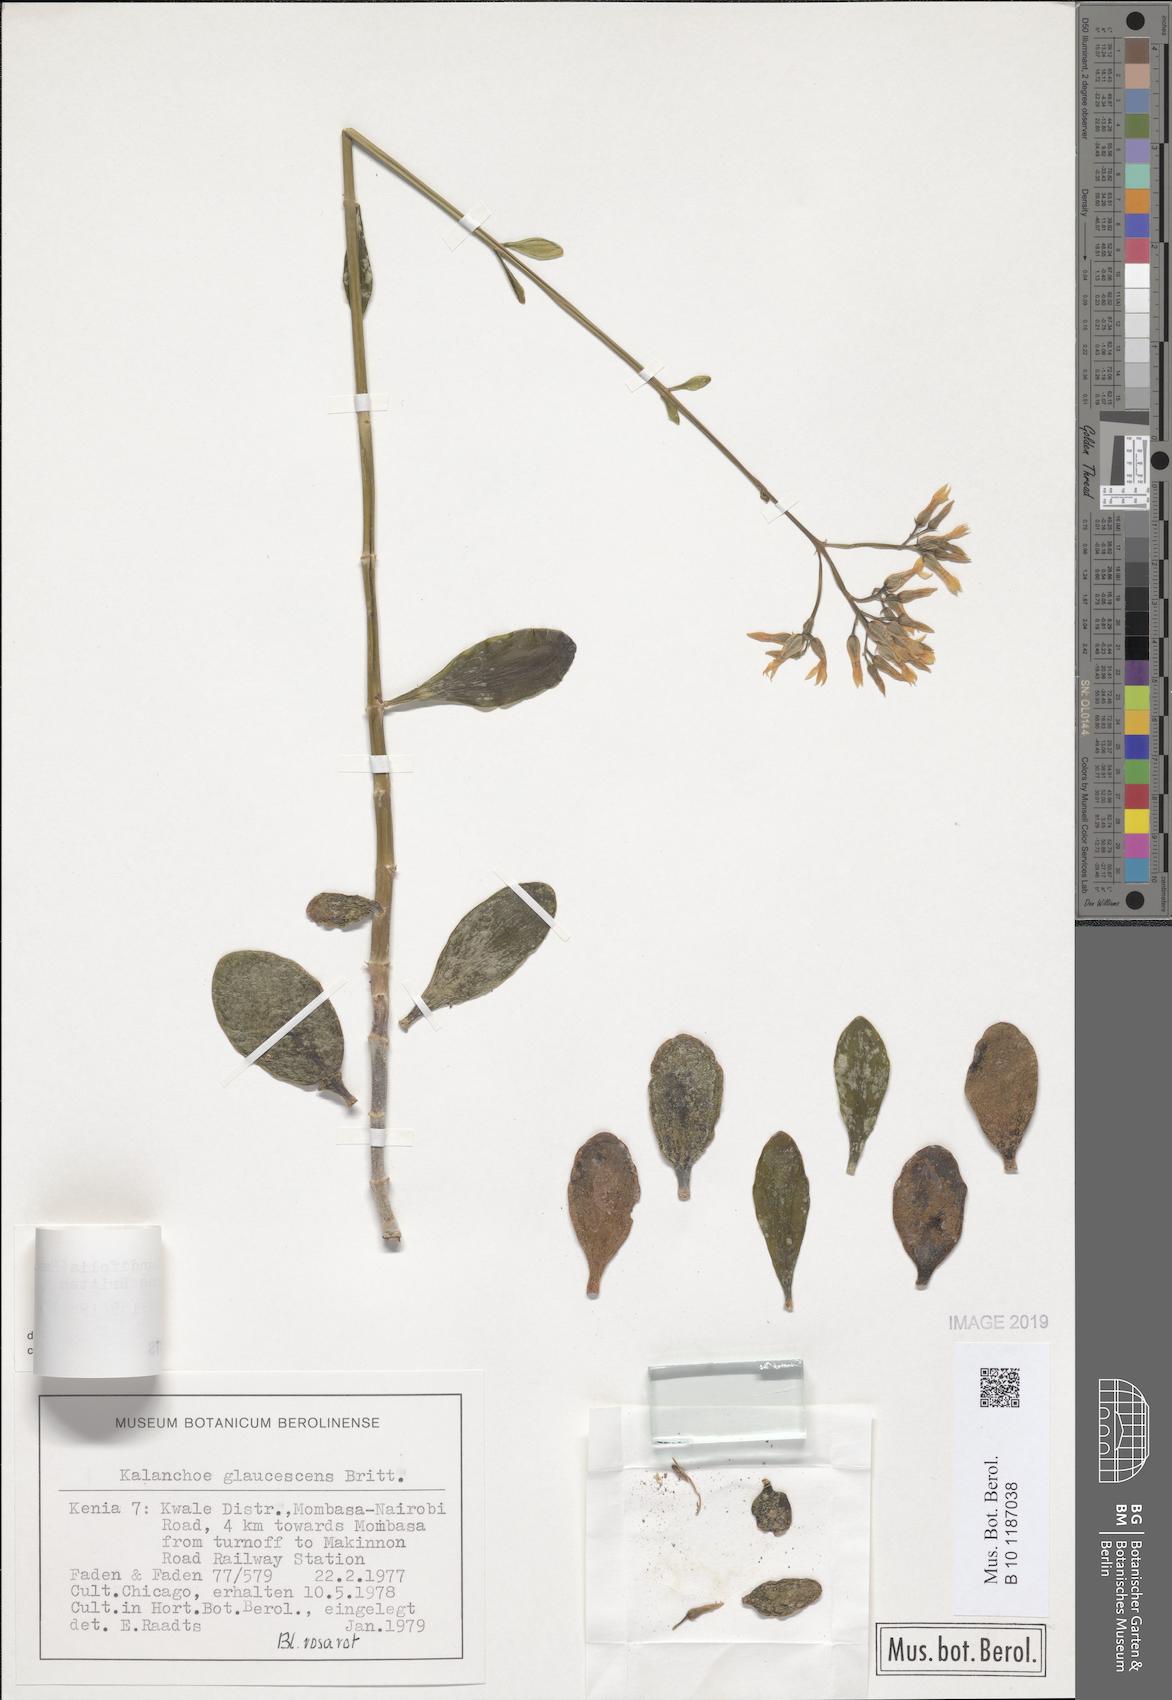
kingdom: Plantae
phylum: Tracheophyta
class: Magnoliopsida
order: Saxifragales
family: Crassulaceae
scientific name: Crassulaceae
